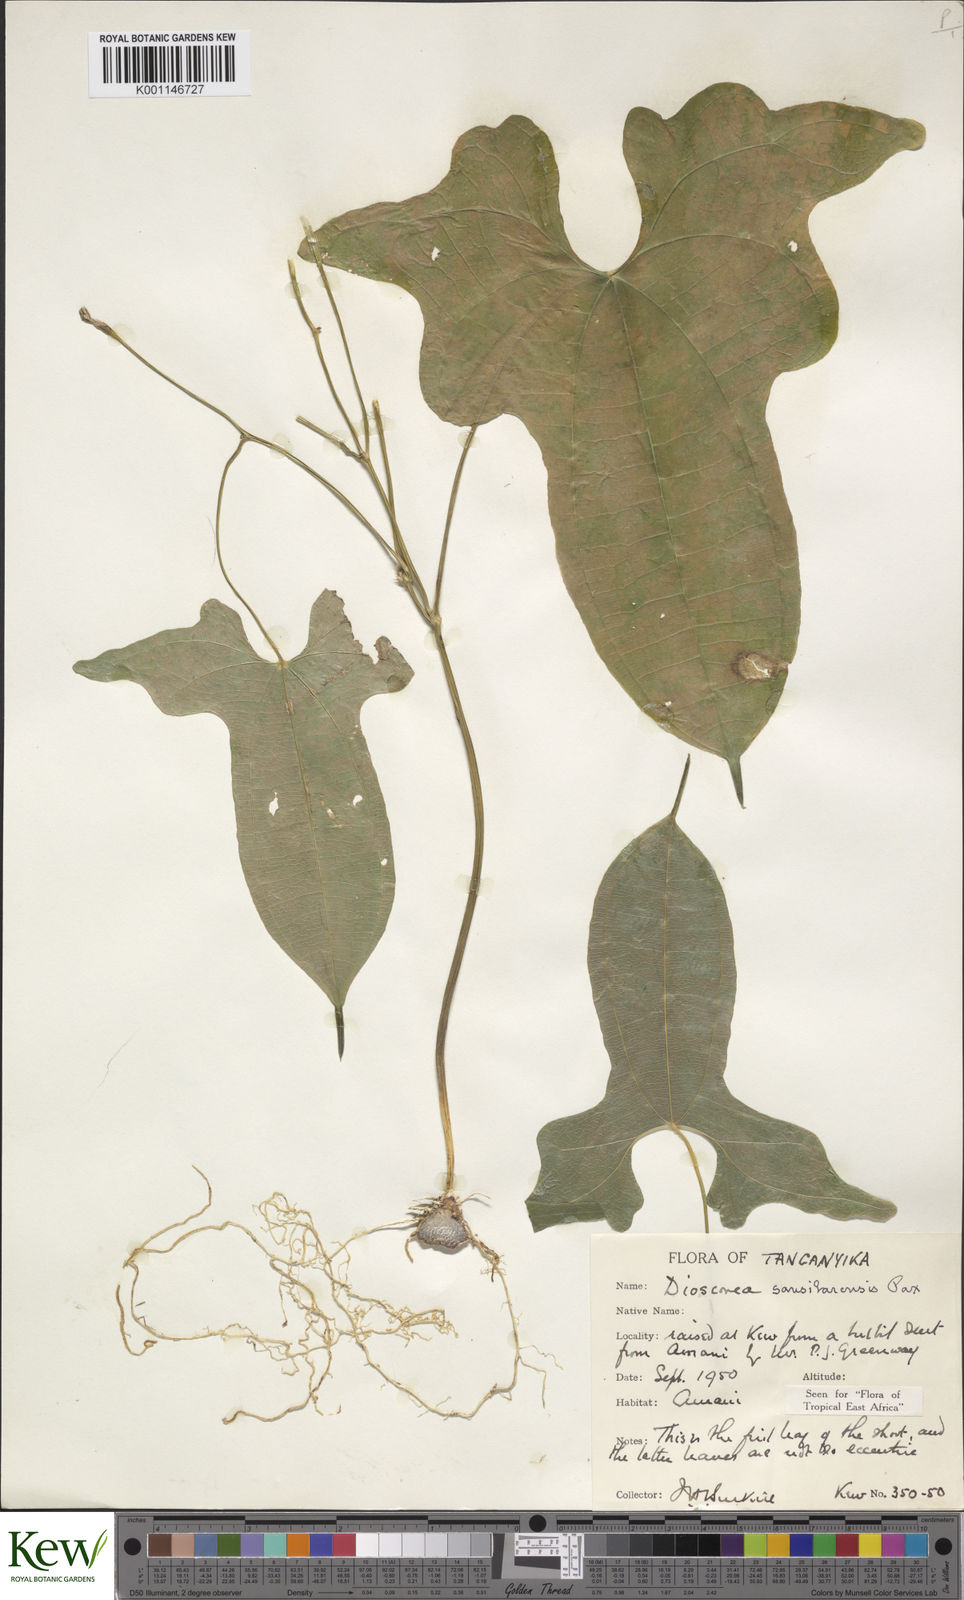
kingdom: Plantae
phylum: Tracheophyta
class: Liliopsida
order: Dioscoreales
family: Dioscoreaceae
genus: Dioscorea
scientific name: Dioscorea sansibarensis
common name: Zanzibar yam
